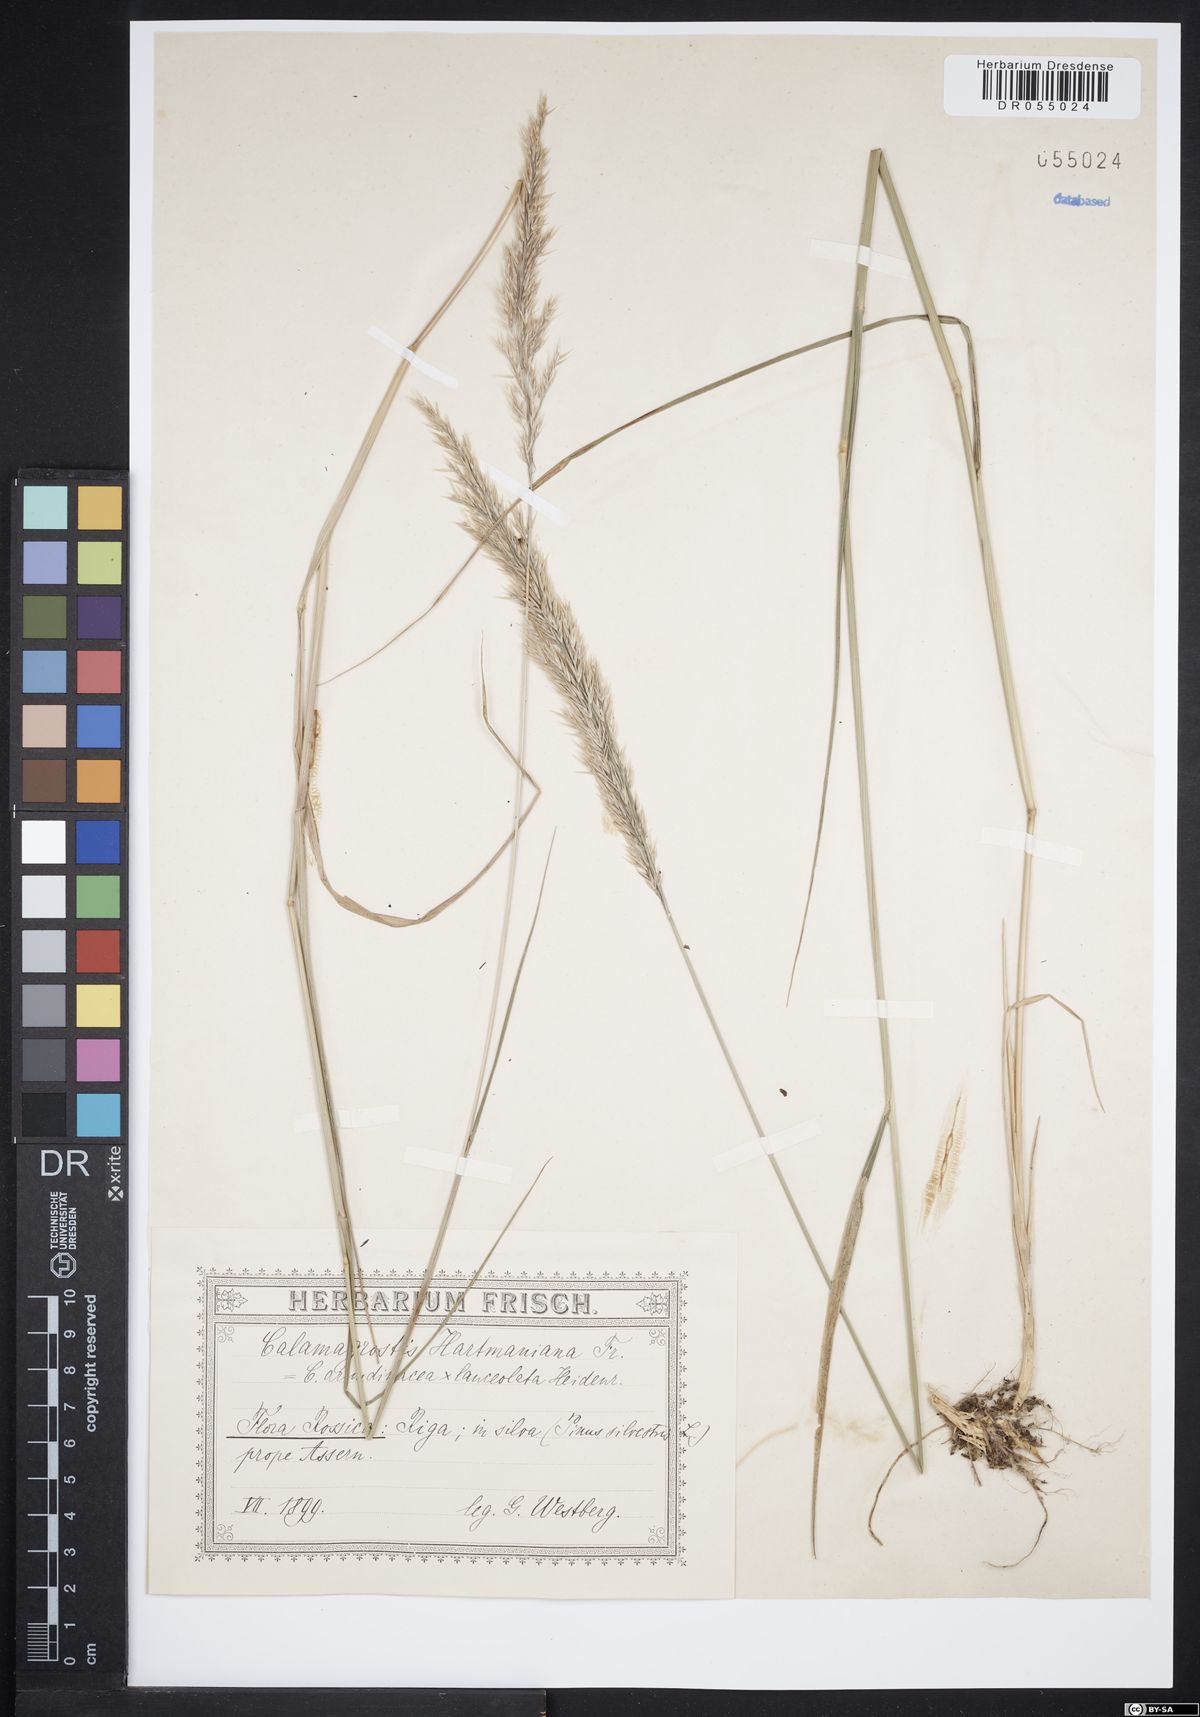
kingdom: Plantae
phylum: Tracheophyta
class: Liliopsida
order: Poales
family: Poaceae
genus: Calamagrostis
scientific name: Calamagrostis hartmaniana
